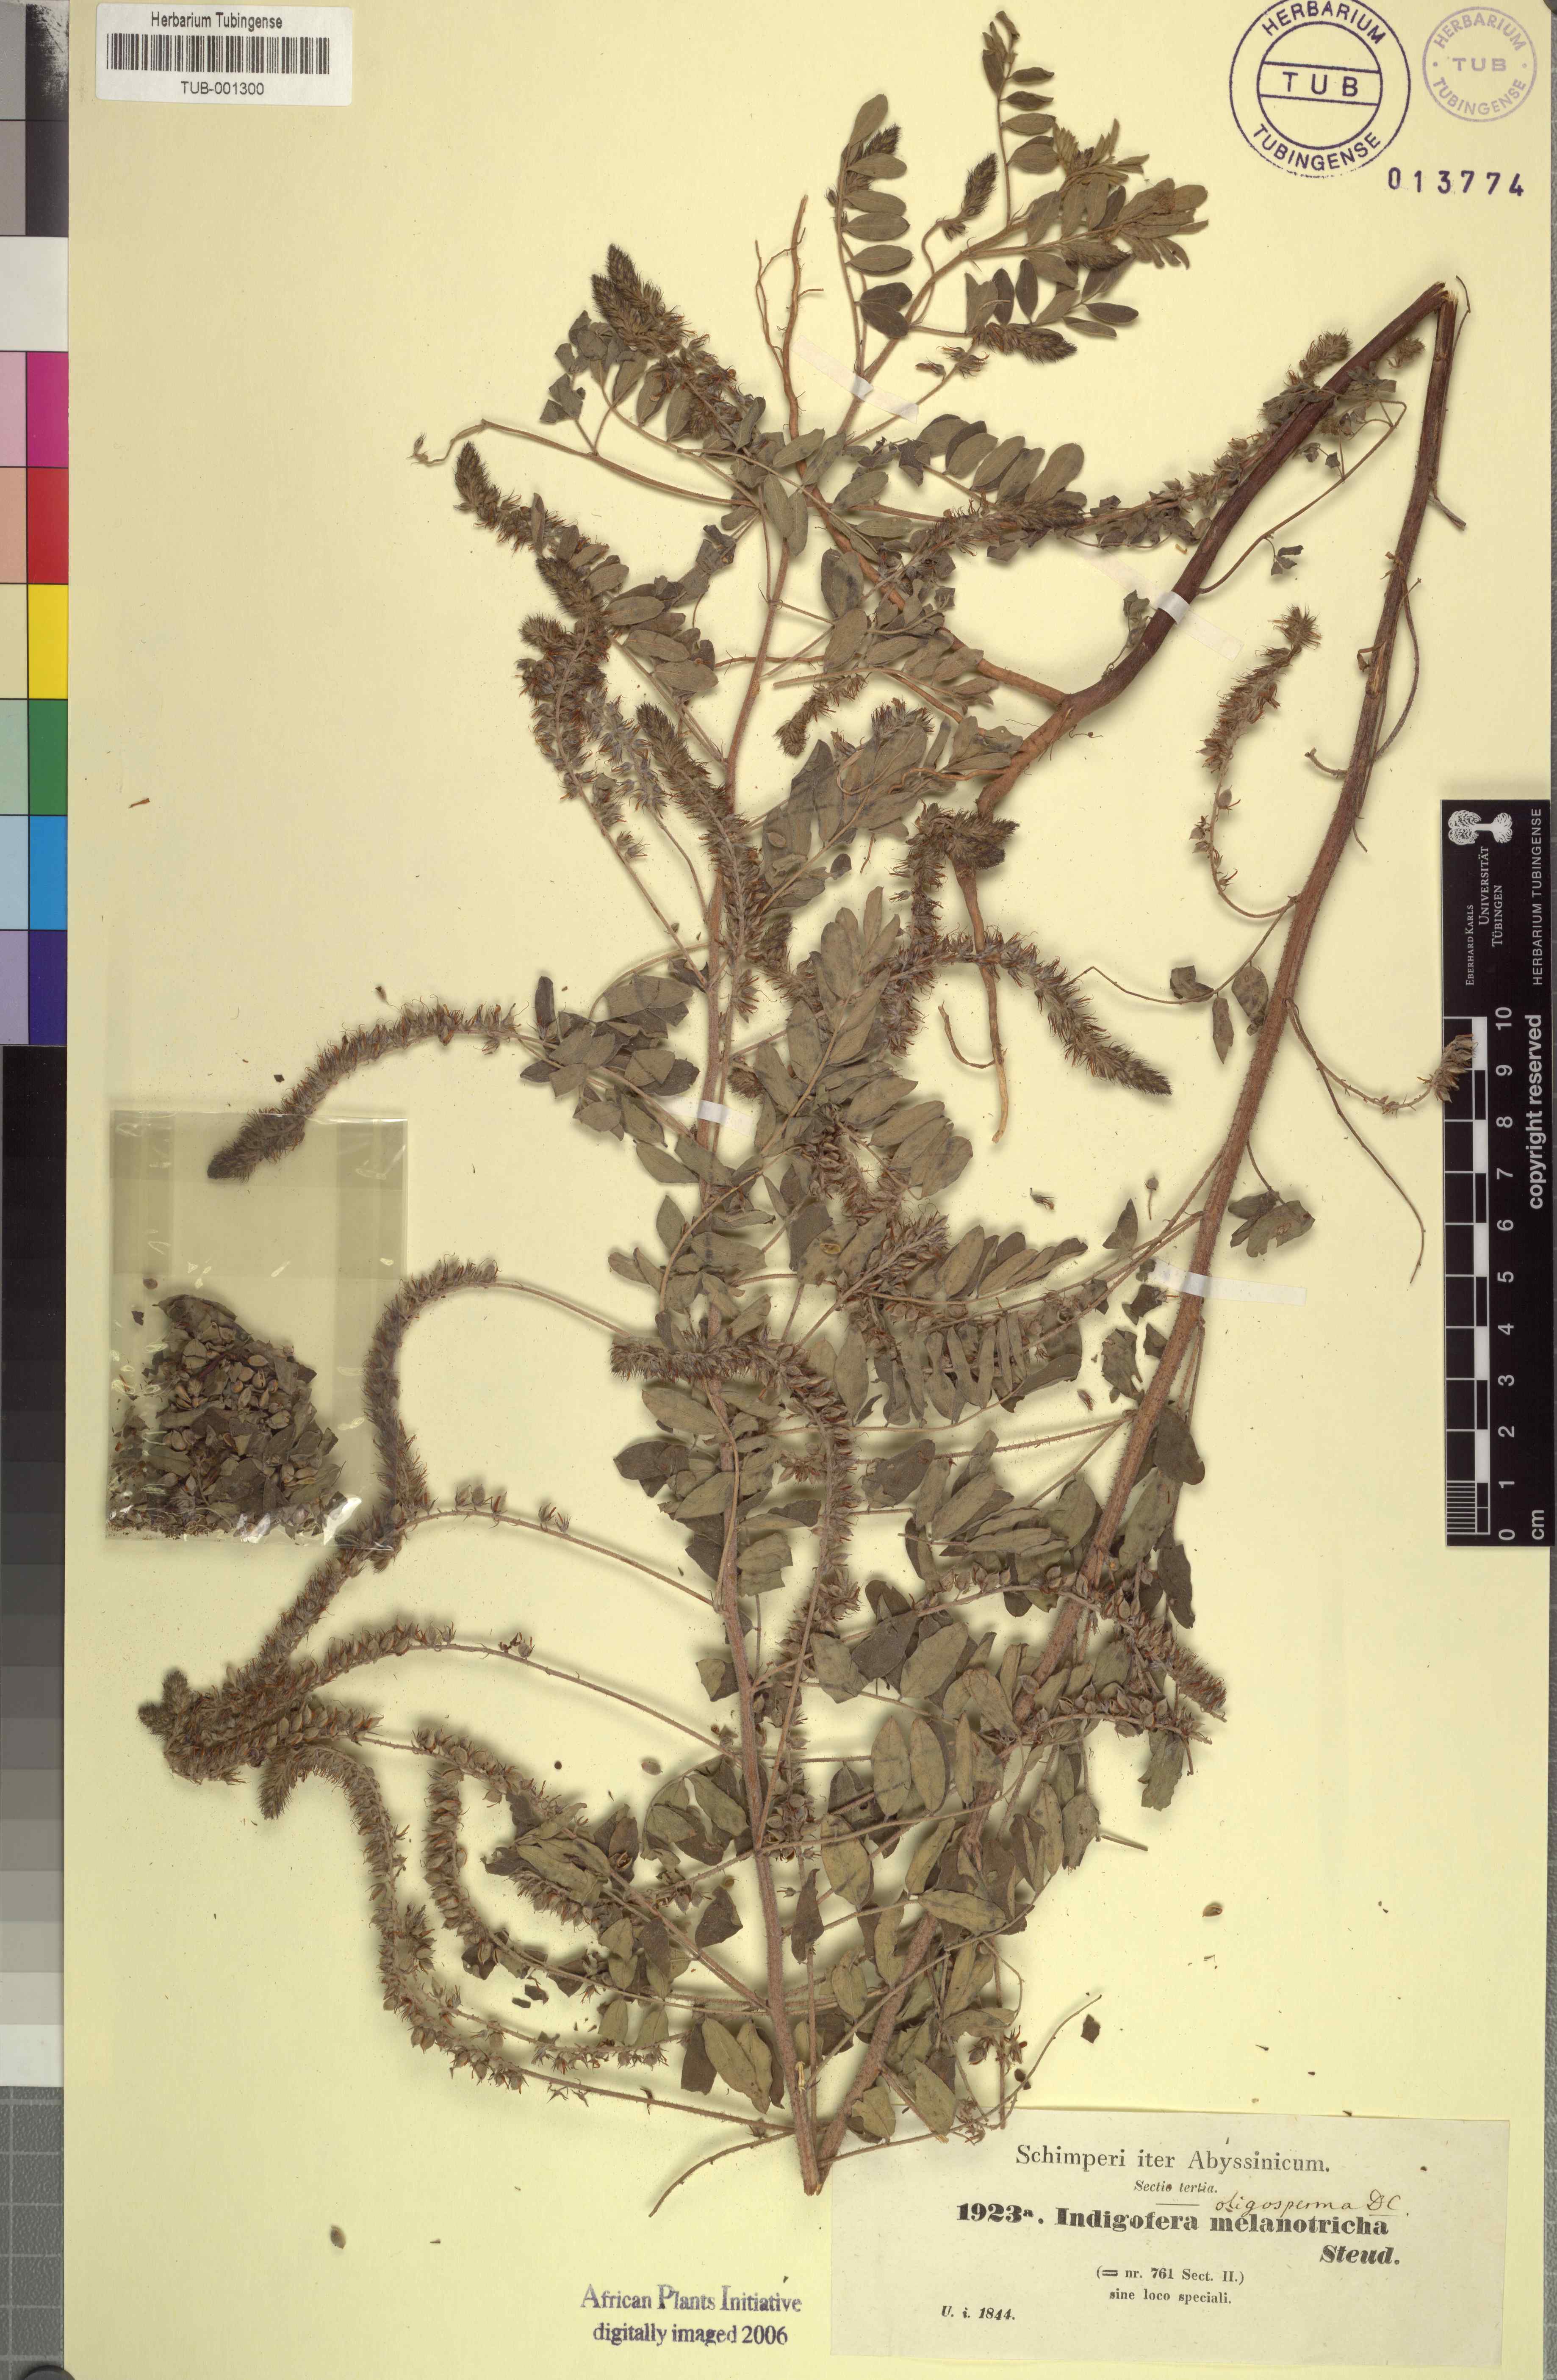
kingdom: Plantae
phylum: Tracheophyta
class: Magnoliopsida
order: Fabales
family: Fabaceae
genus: Indigofera
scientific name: Indigofera secundiflora
